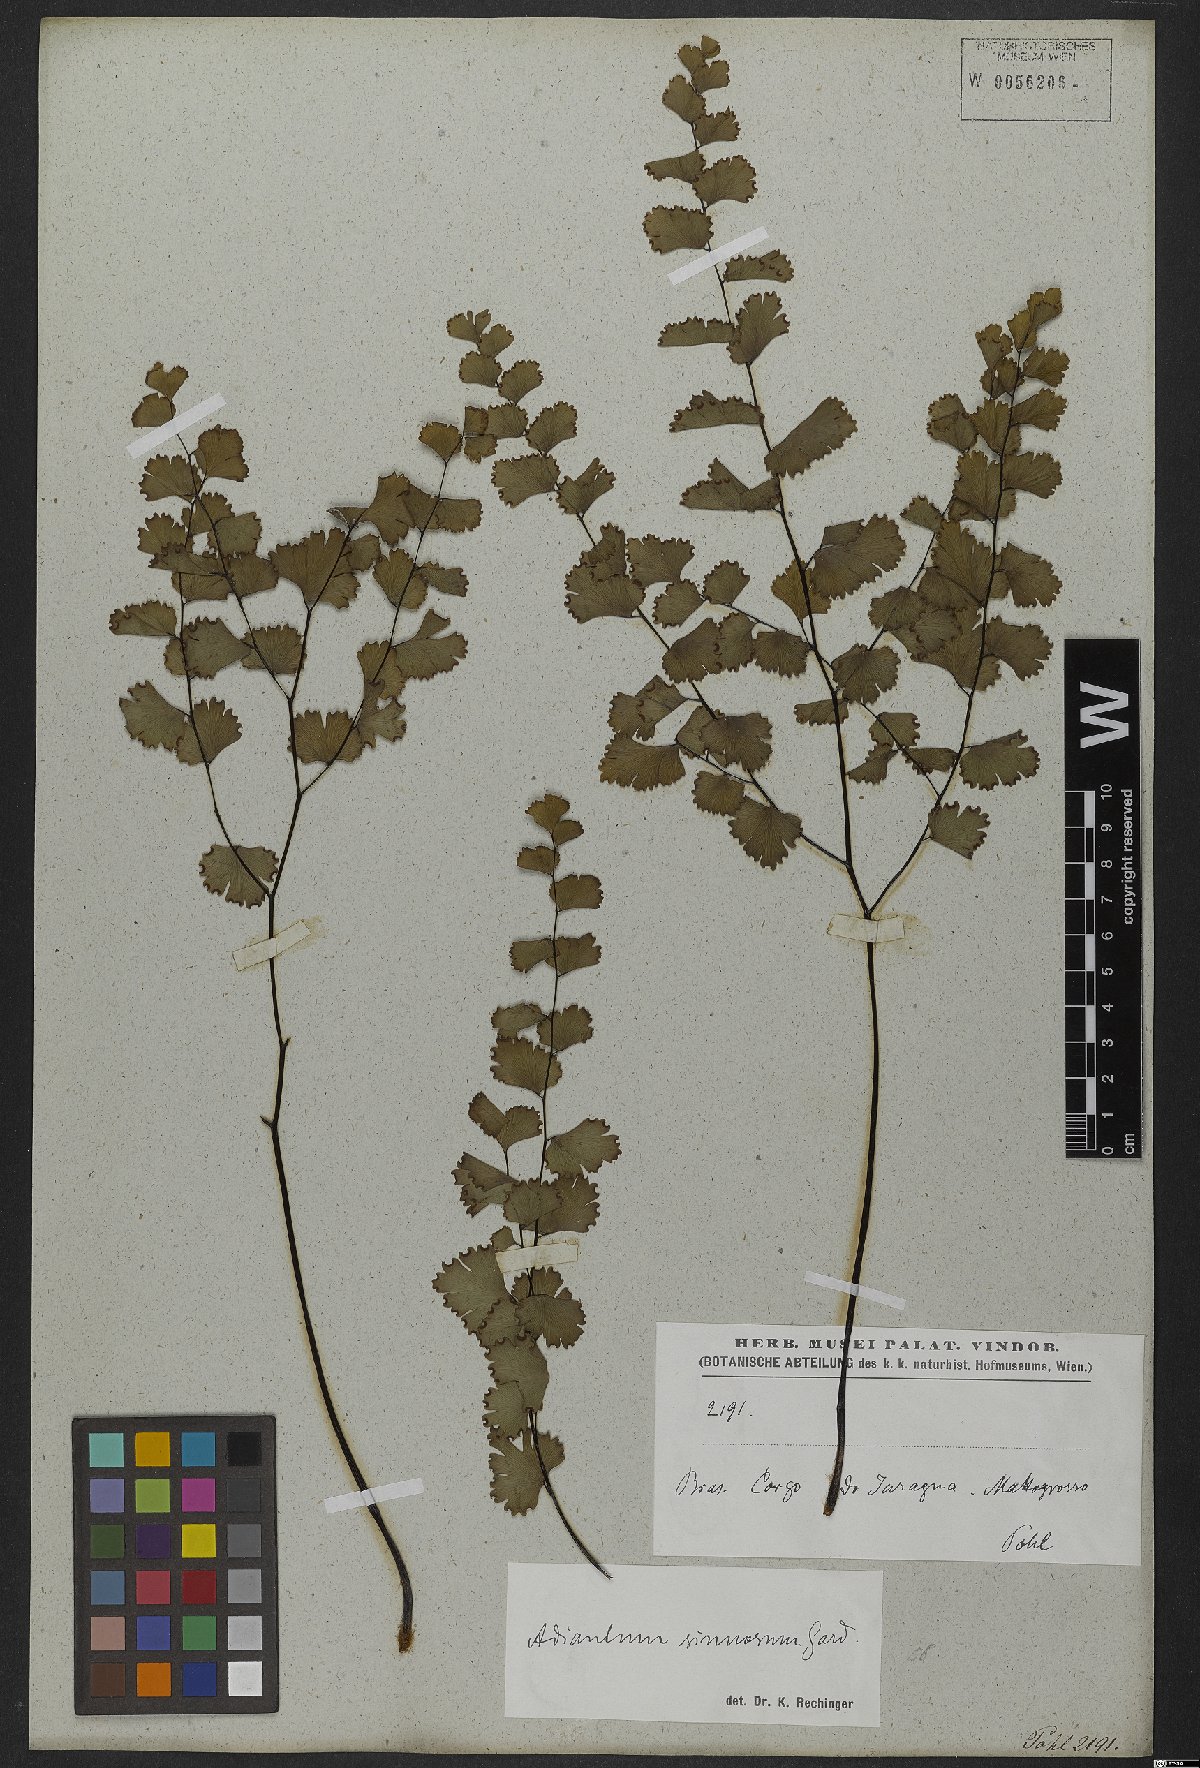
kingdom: Plantae
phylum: Tracheophyta
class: Polypodiopsida
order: Polypodiales
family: Pteridaceae
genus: Adiantum
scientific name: Adiantum sinuosum
